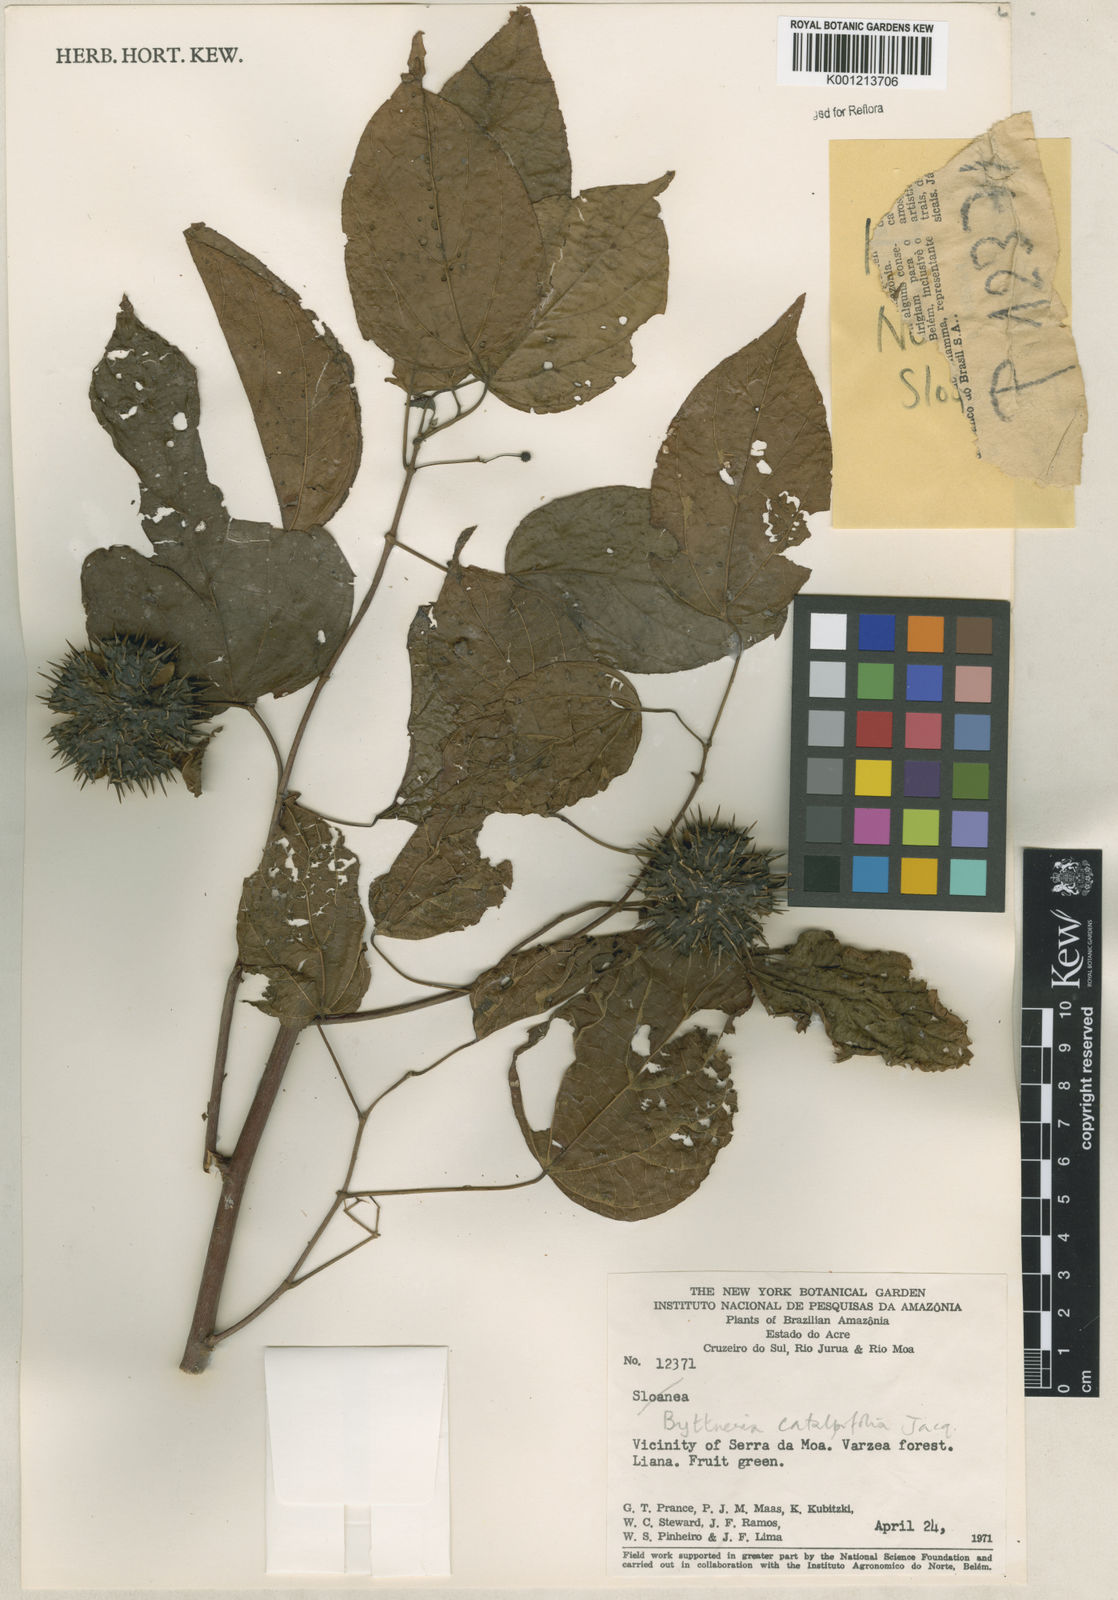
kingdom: Plantae
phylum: Tracheophyta
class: Magnoliopsida
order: Malvales
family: Malvaceae
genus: Byttneria
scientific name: Byttneria catalpifolia
